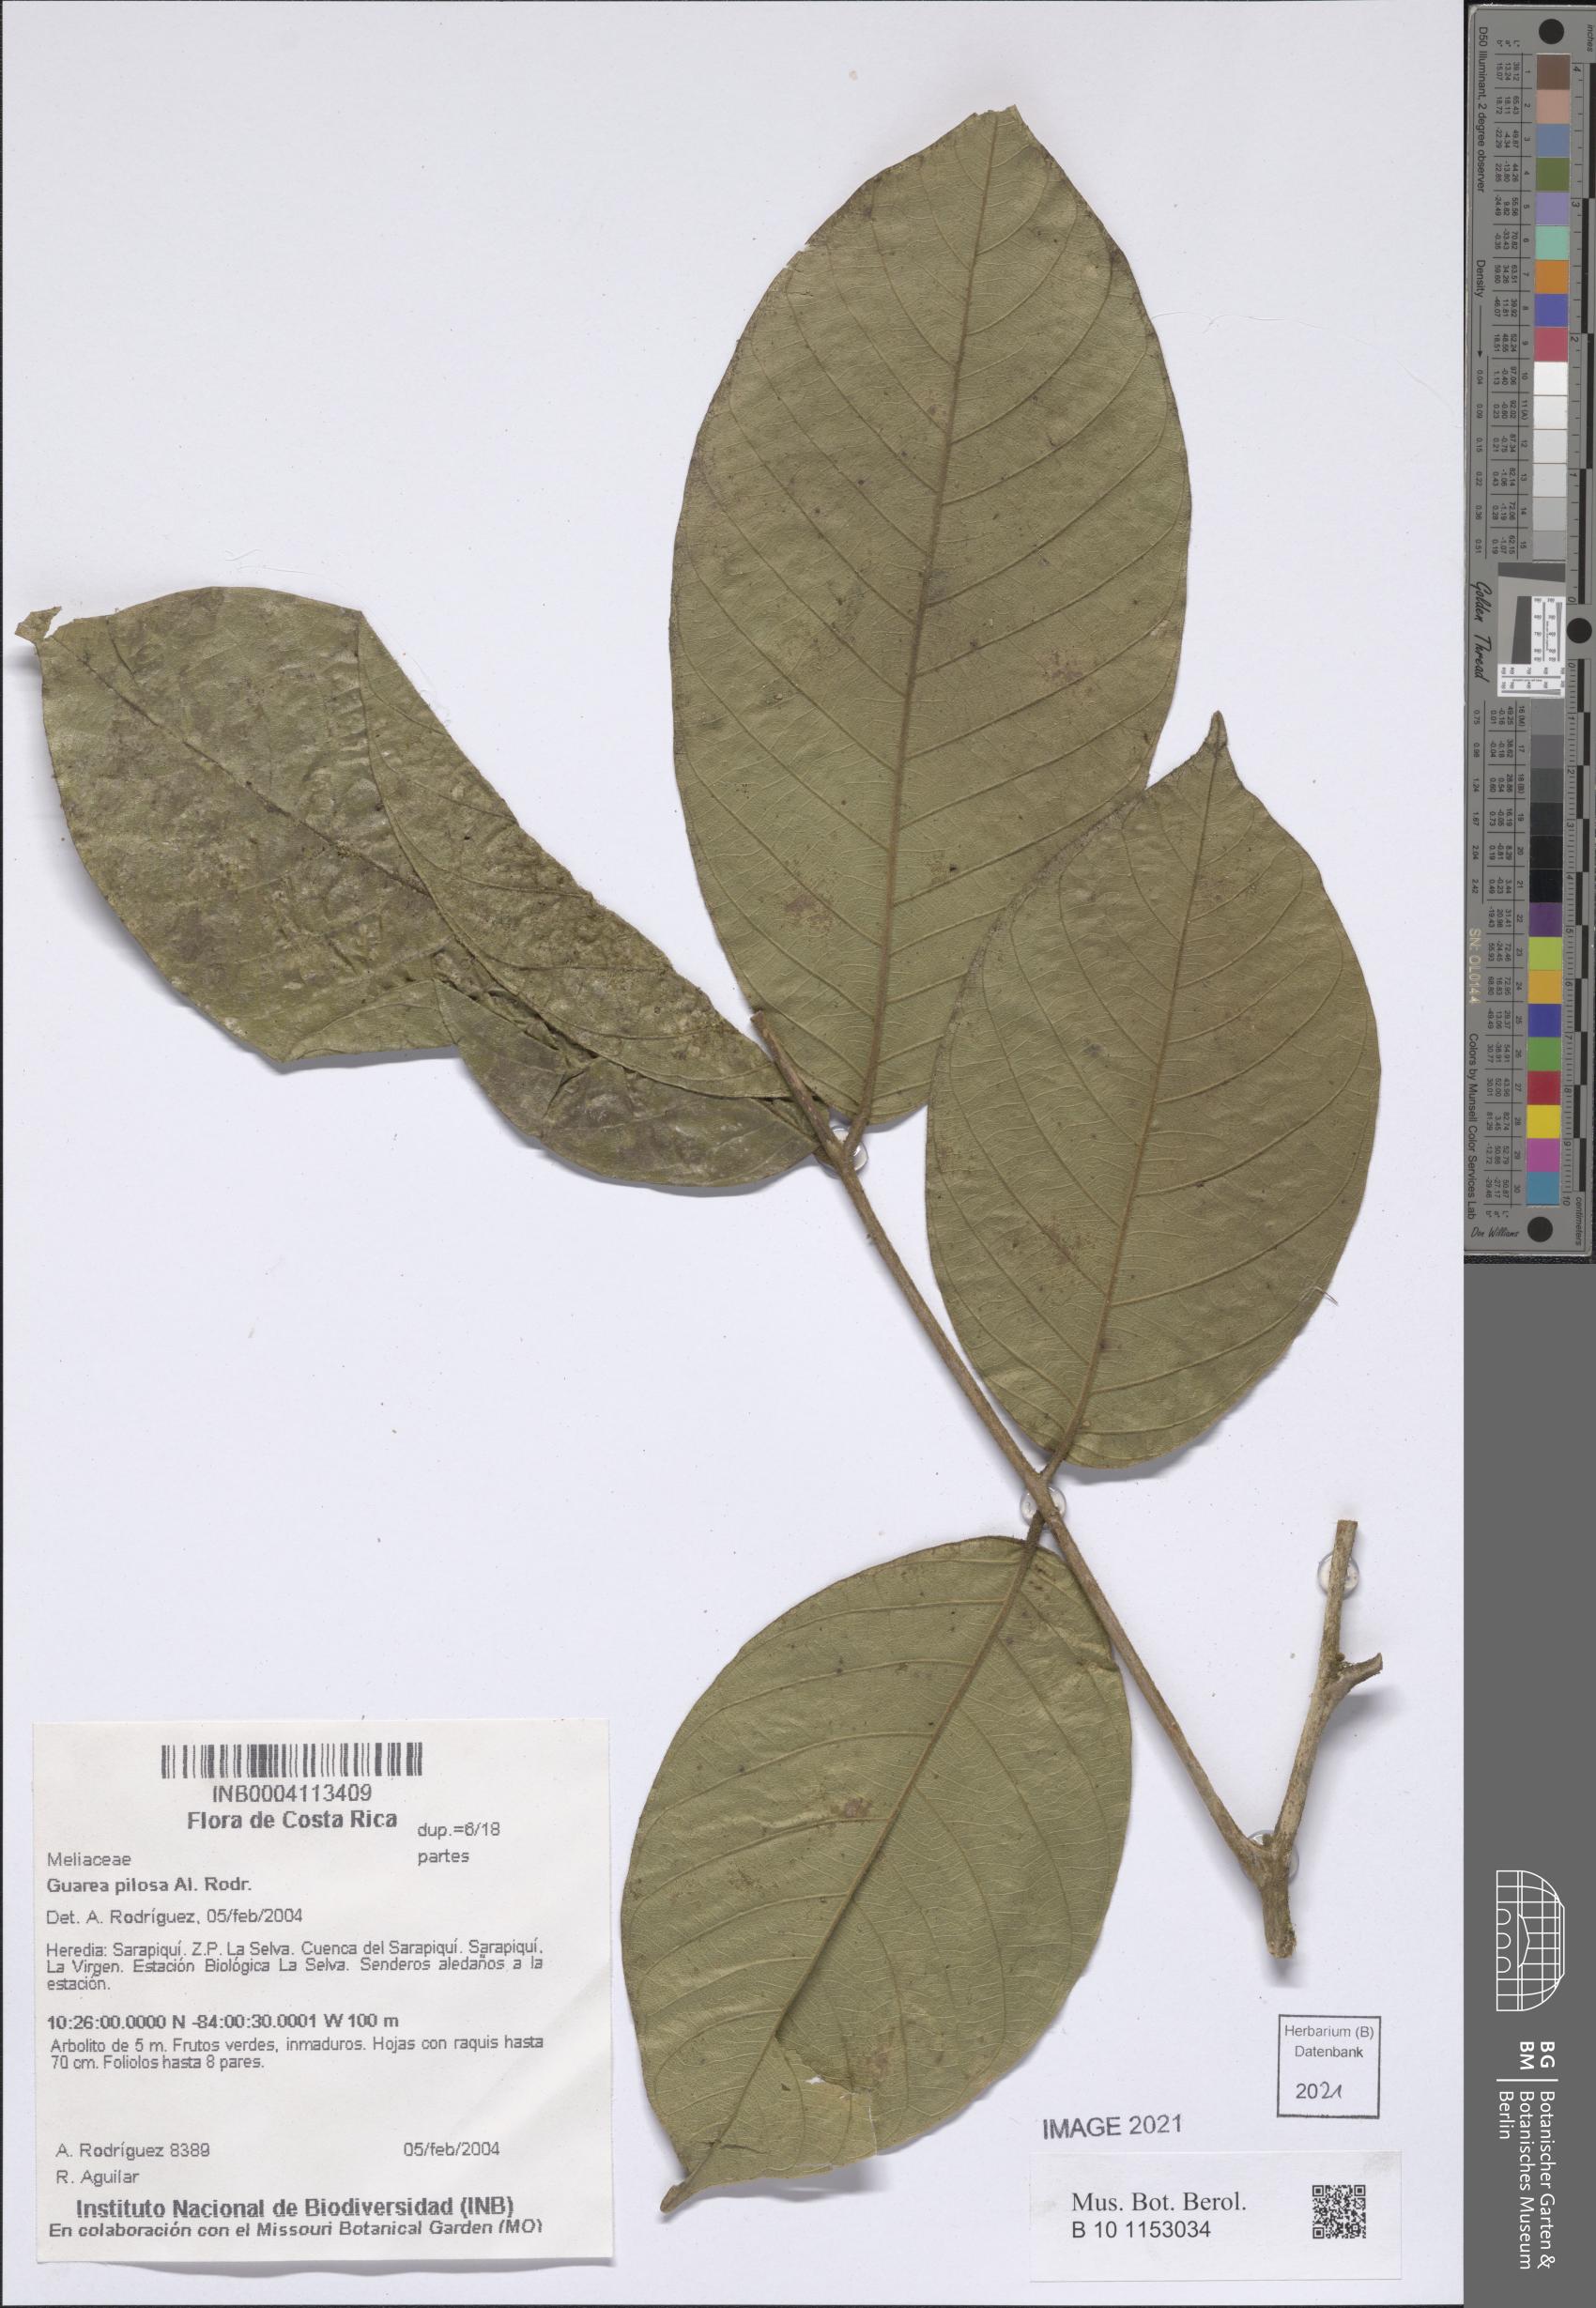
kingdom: Plantae
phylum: Tracheophyta
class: Magnoliopsida
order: Sapindales
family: Meliaceae
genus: Guarea
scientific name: Guarea pilosa
